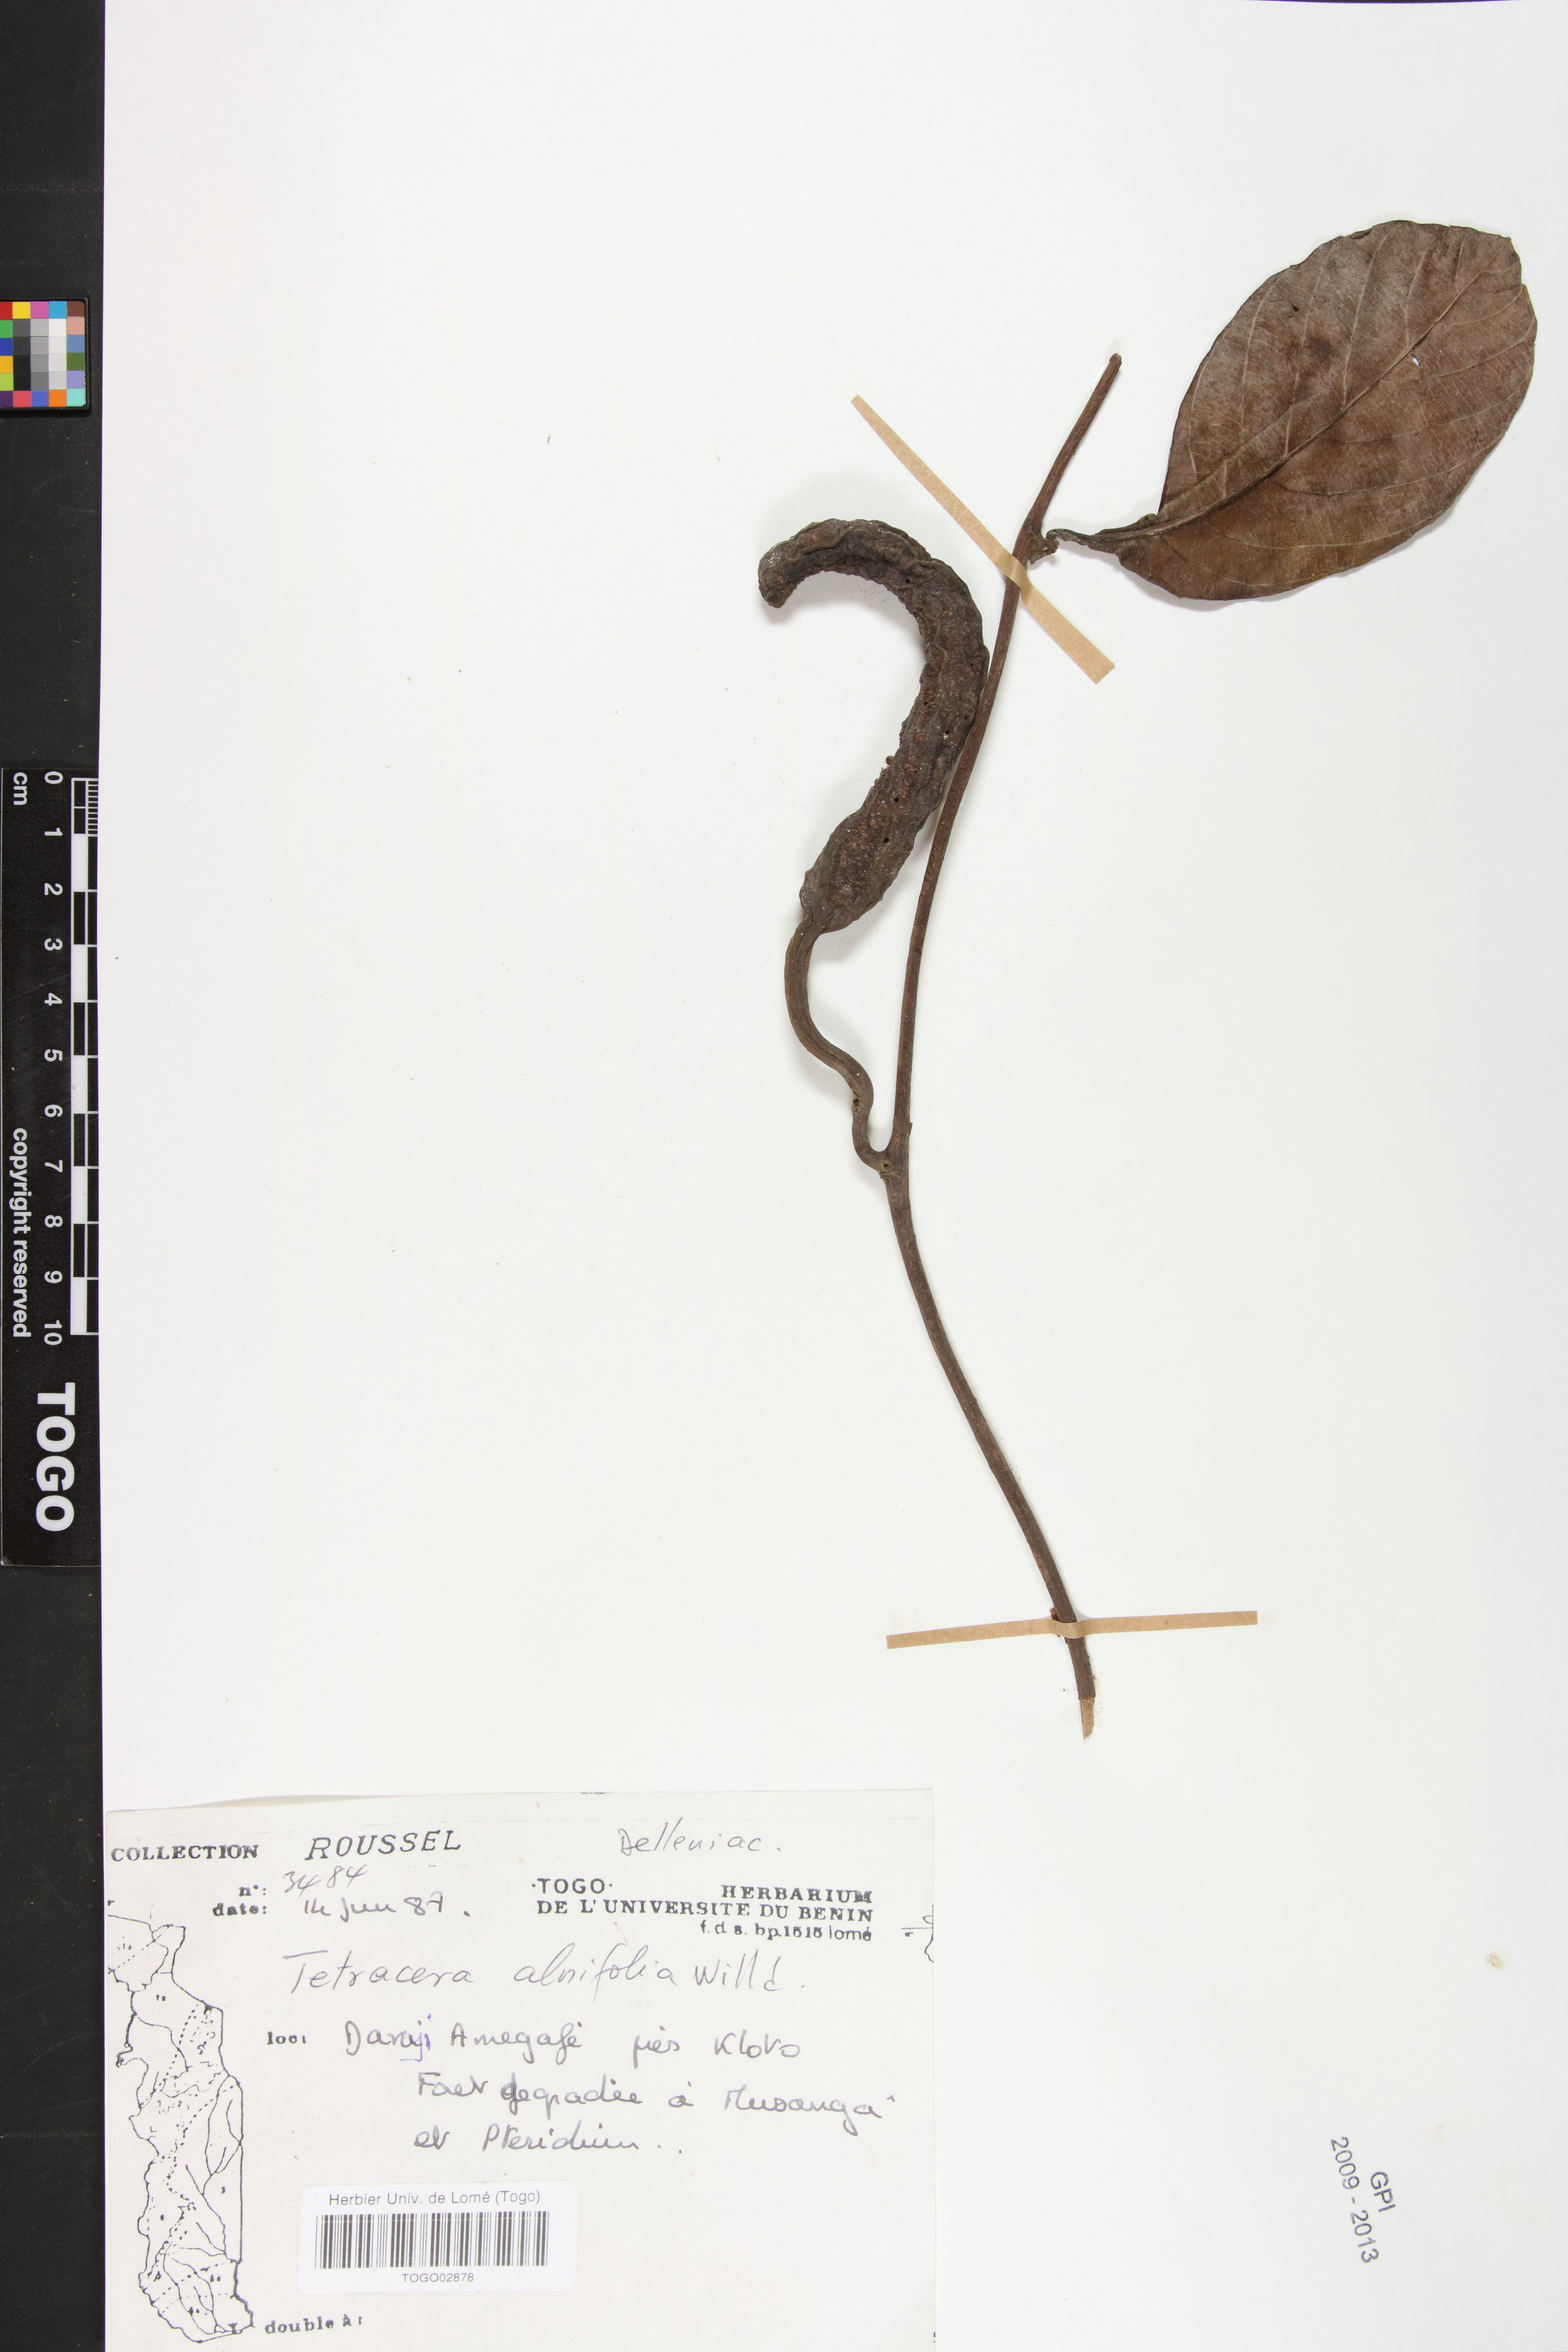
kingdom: Plantae
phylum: Tracheophyta
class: Magnoliopsida
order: Dilleniales
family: Dilleniaceae
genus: Tetracera
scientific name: Tetracera alnifolia
